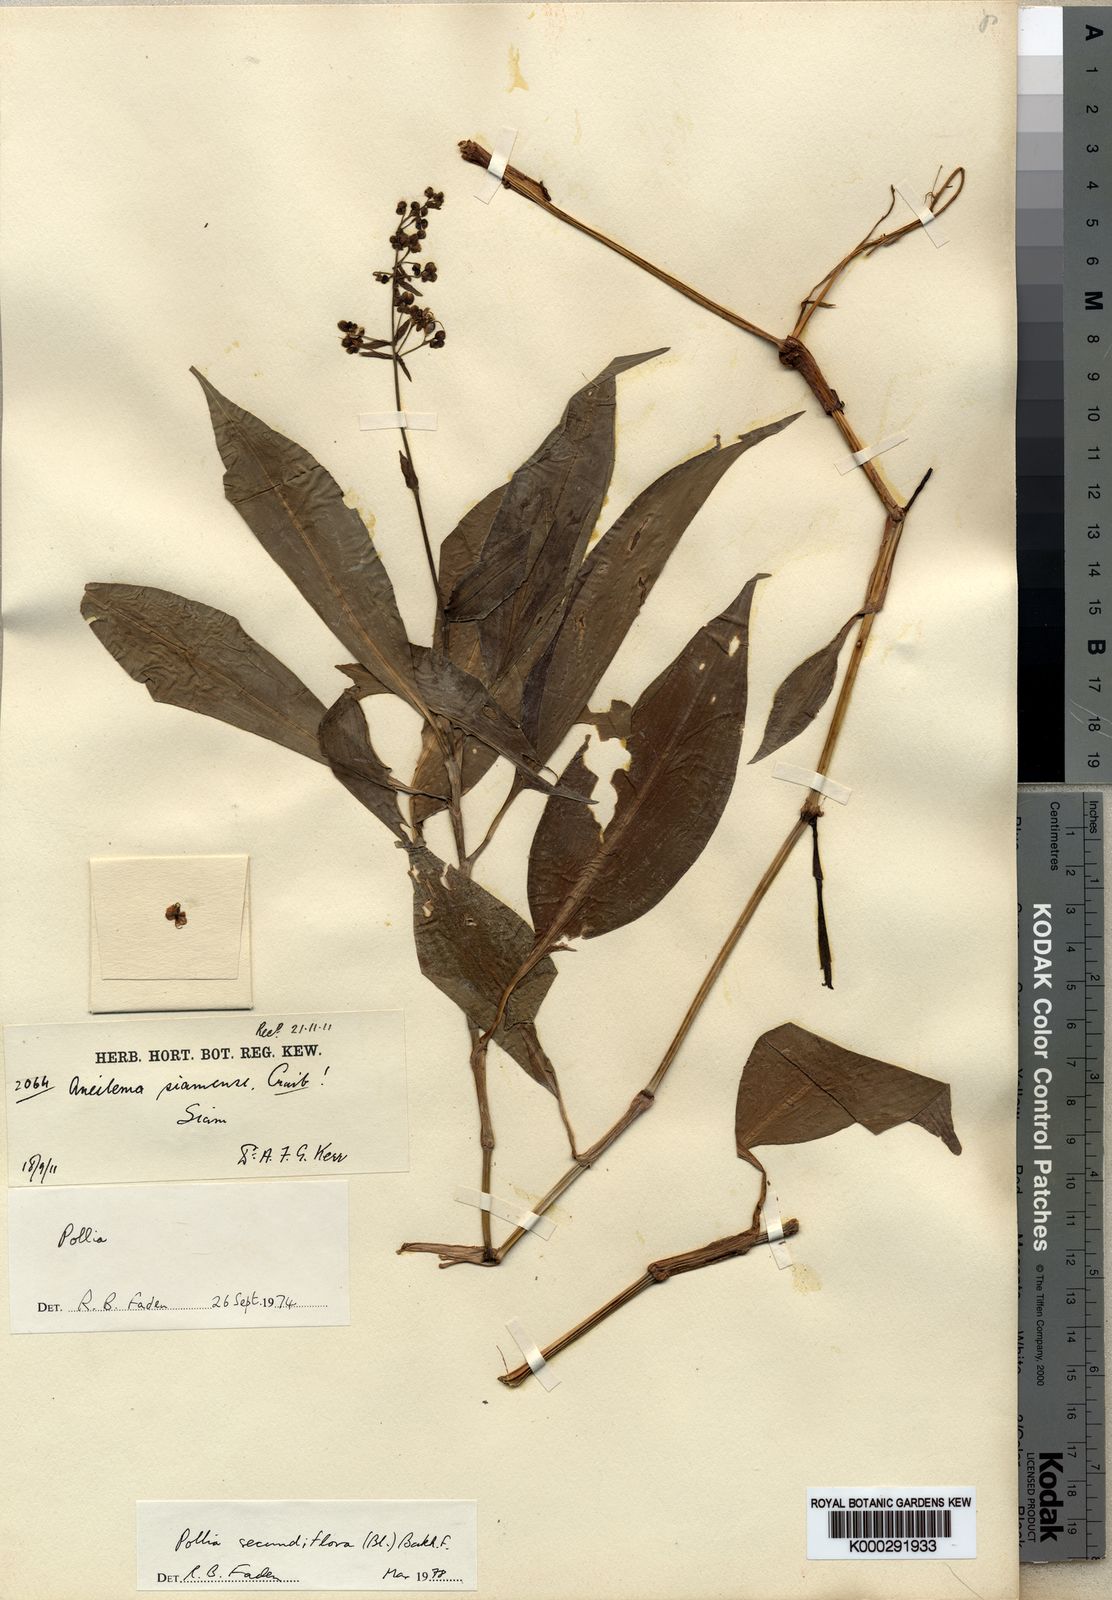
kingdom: Plantae
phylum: Tracheophyta
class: Liliopsida
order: Commelinales
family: Commelinaceae
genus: Pollia
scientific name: Pollia secundiflora
